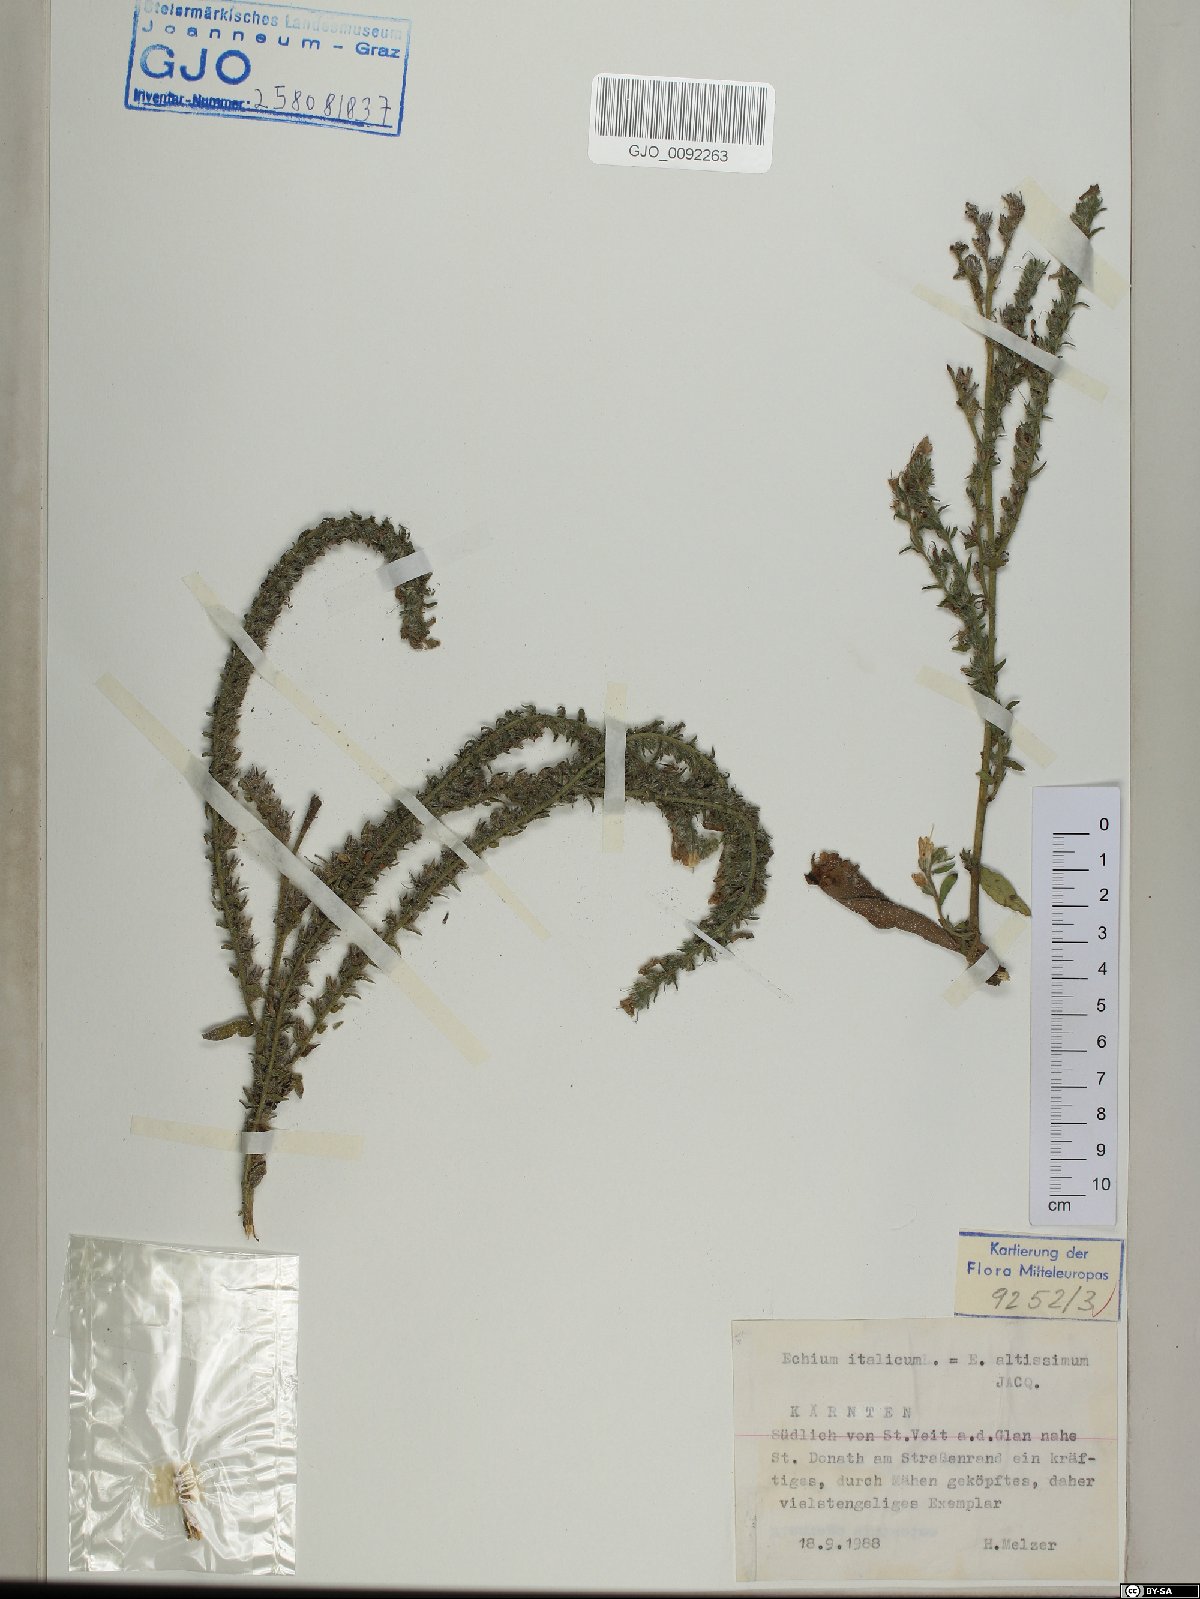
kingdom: Plantae
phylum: Tracheophyta
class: Magnoliopsida
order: Boraginales
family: Boraginaceae
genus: Echium
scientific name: Echium italicum
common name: Italian viper's bugloss
